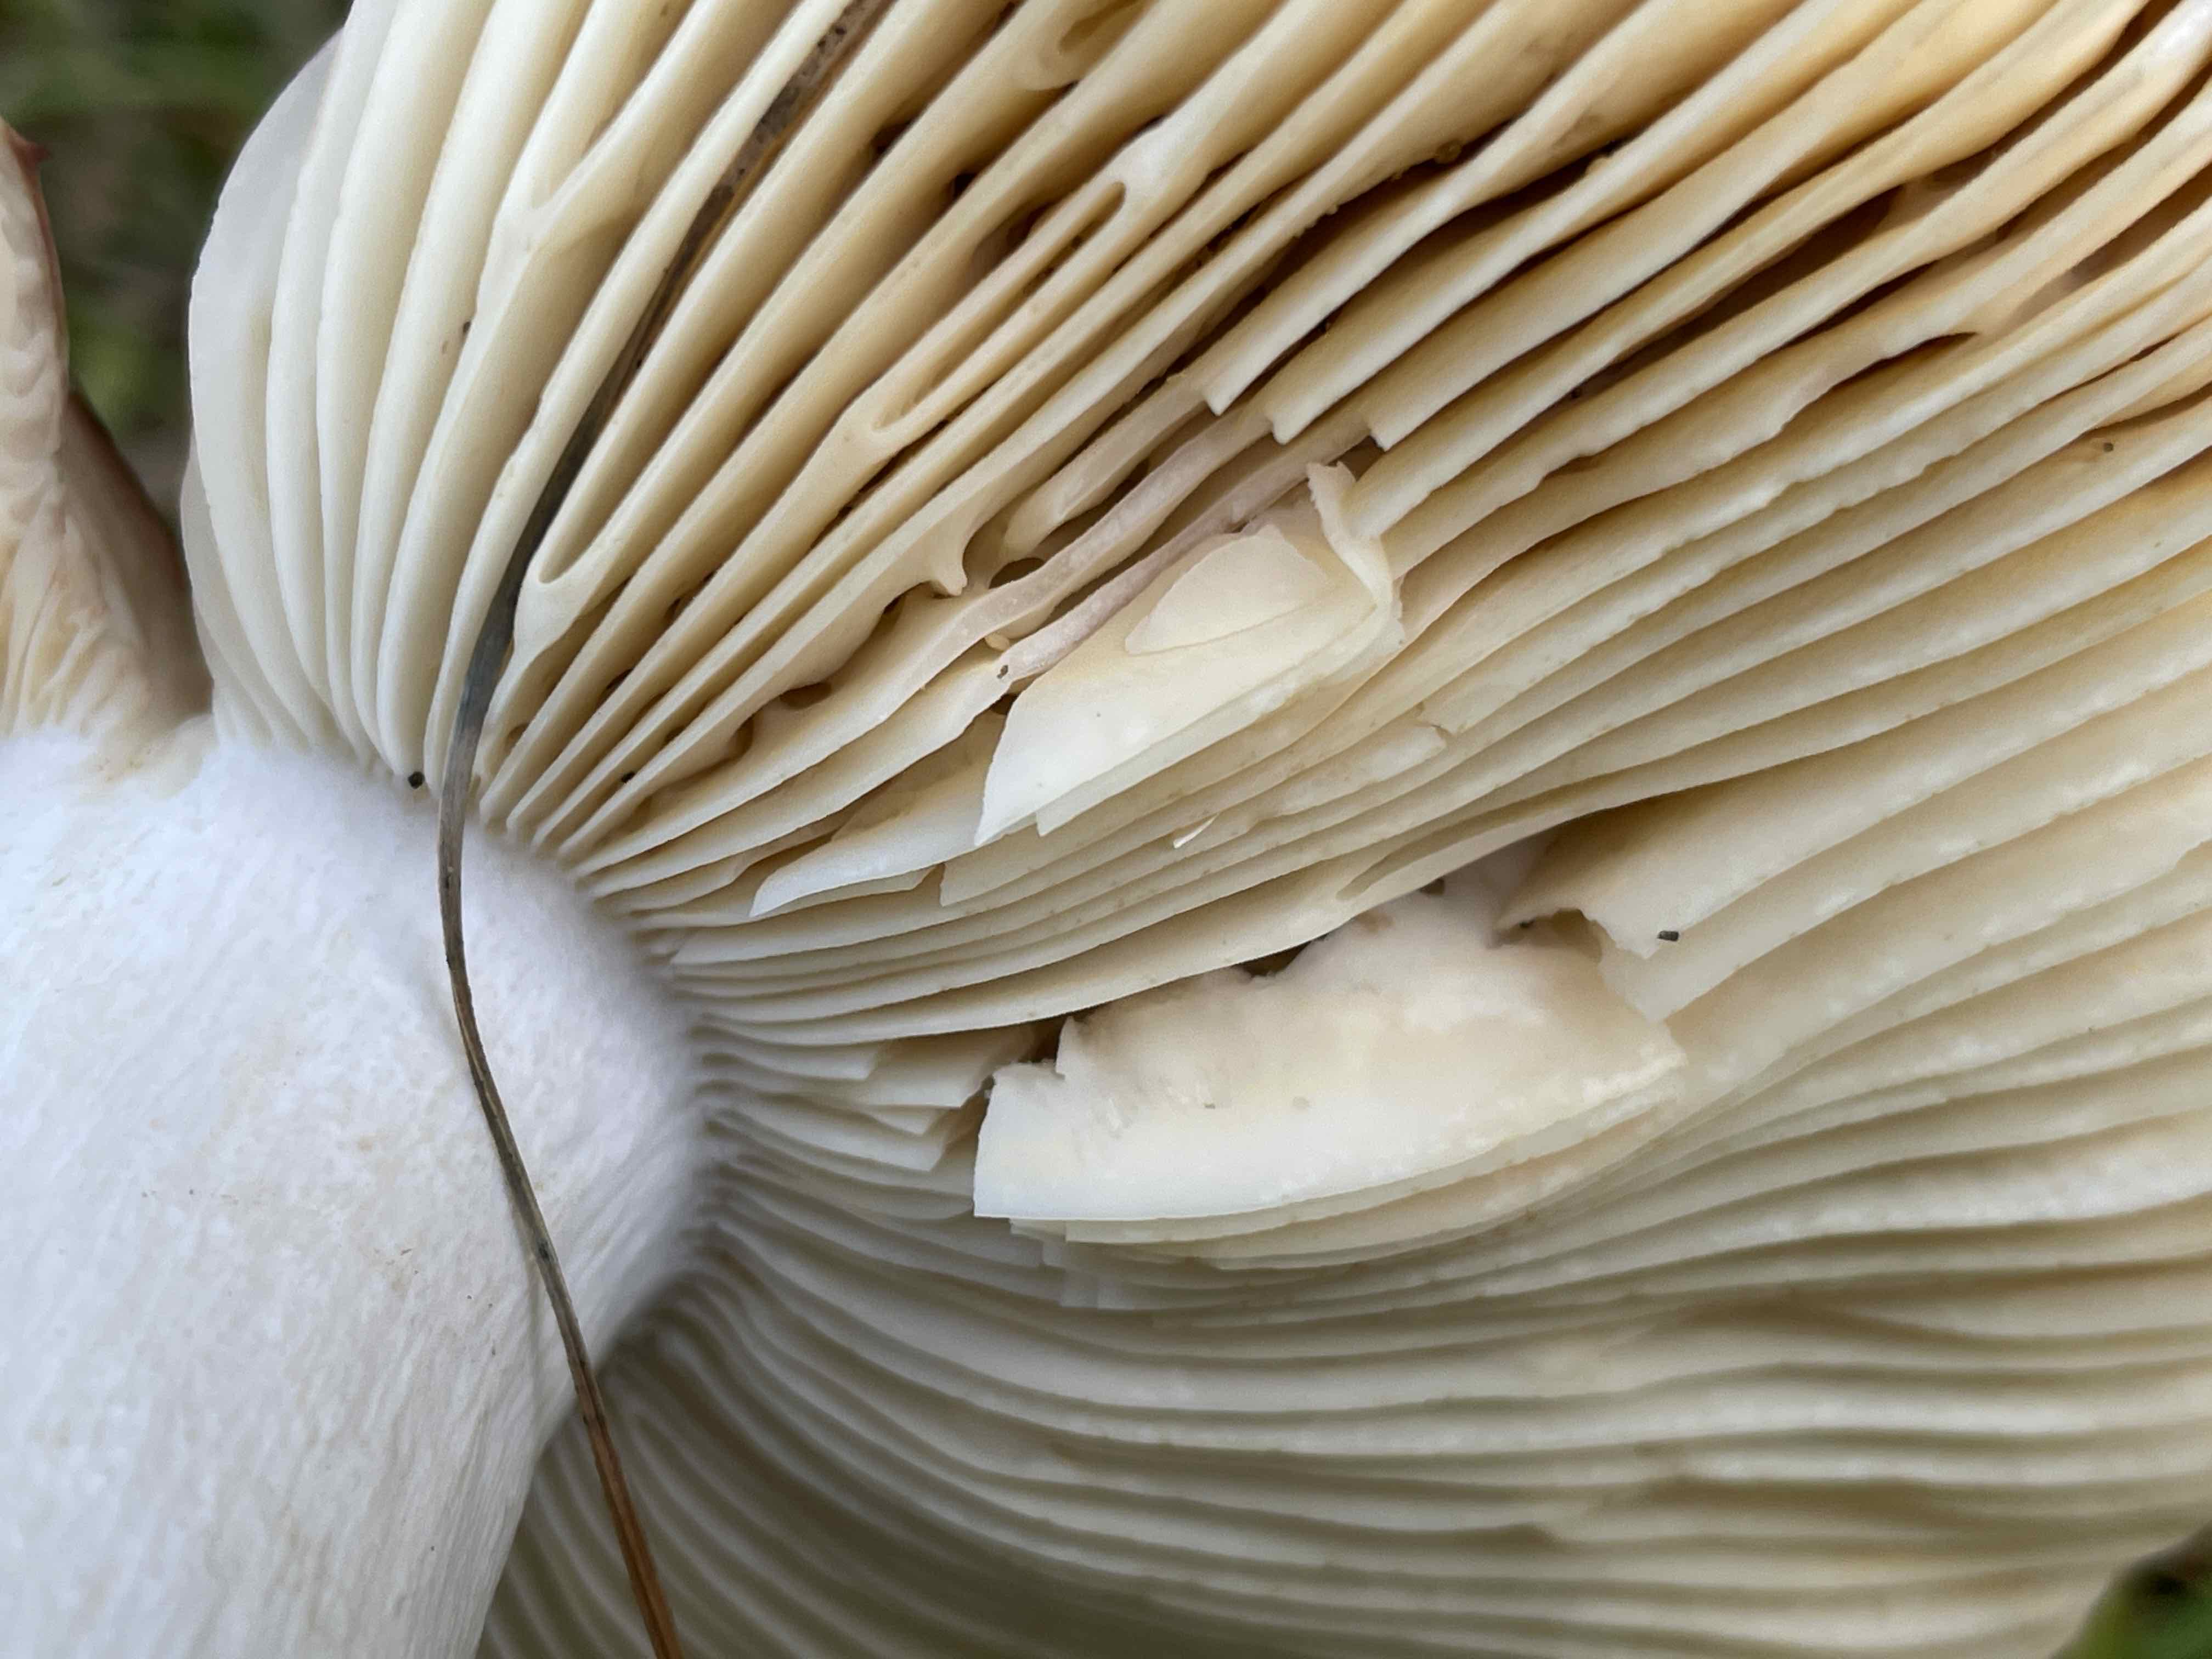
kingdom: Fungi
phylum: Basidiomycota
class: Agaricomycetes
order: Russulales
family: Russulaceae
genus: Russula
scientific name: Russula integra
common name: mandel-skørhat
